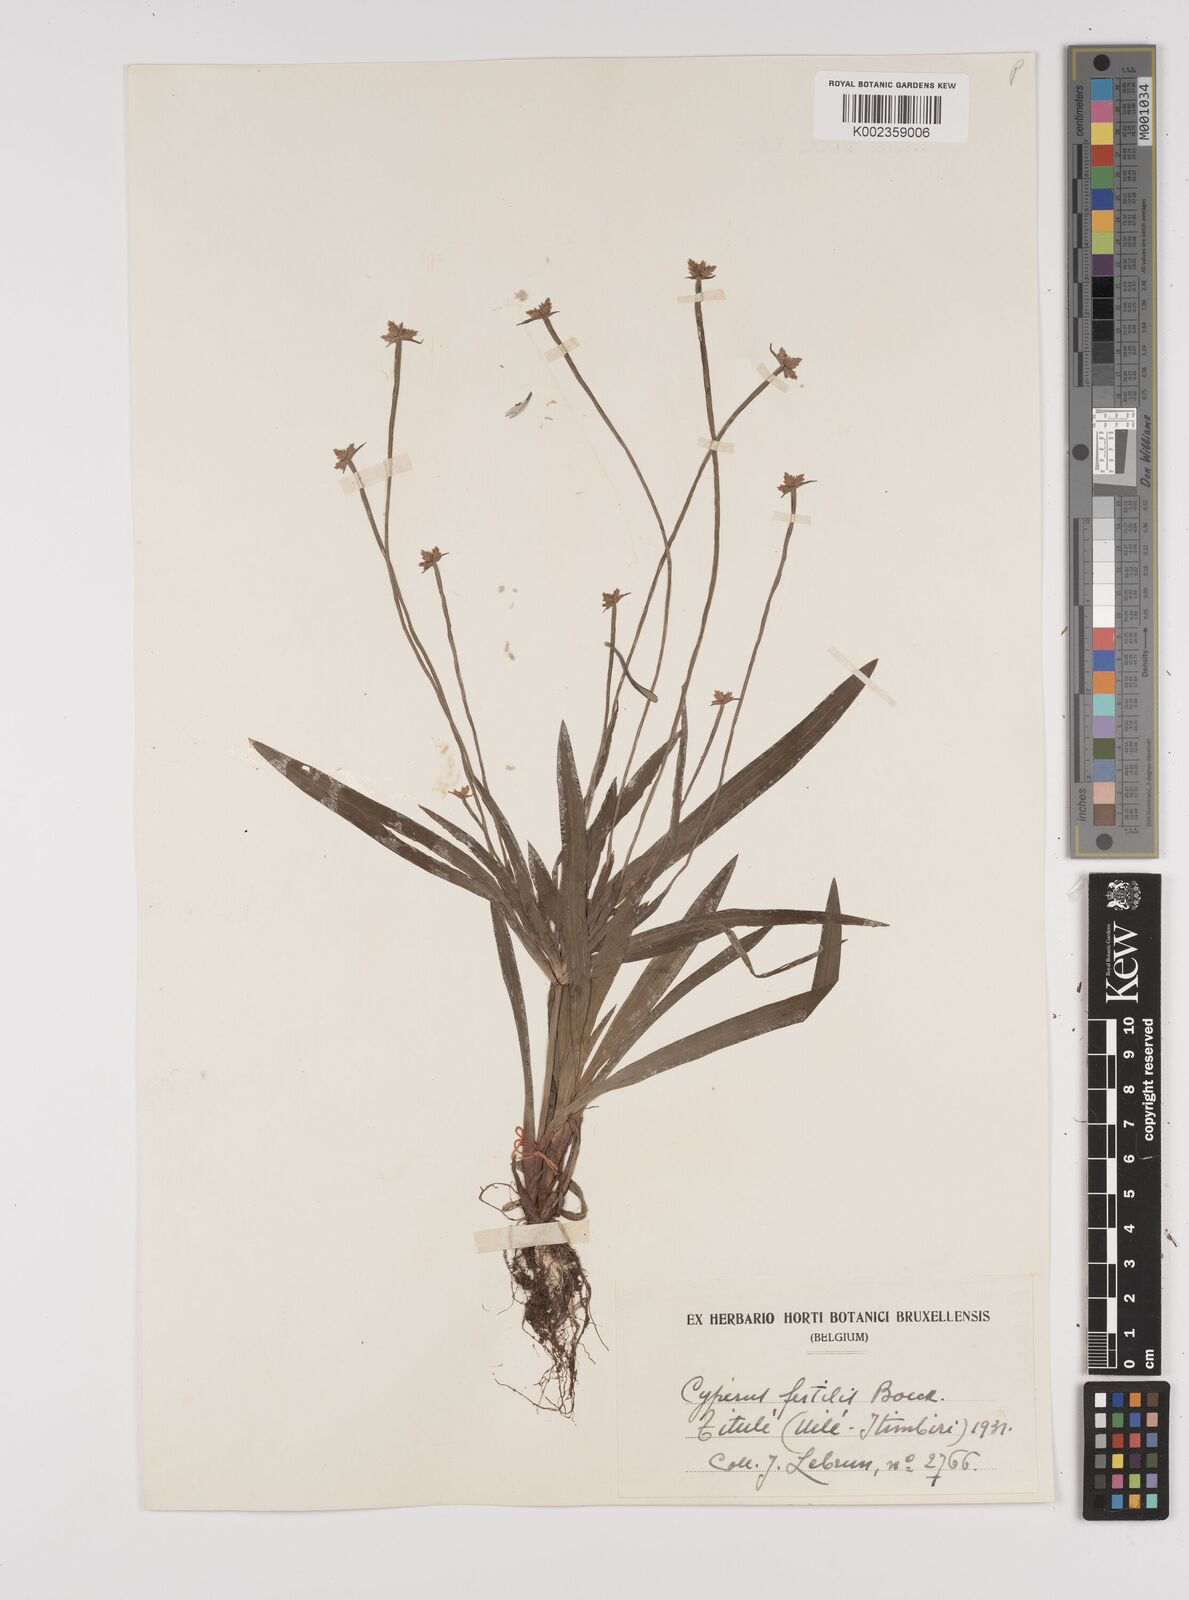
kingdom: Plantae
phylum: Tracheophyta
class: Liliopsida
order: Poales
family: Cyperaceae
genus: Cyperus
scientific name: Cyperus fertilis
